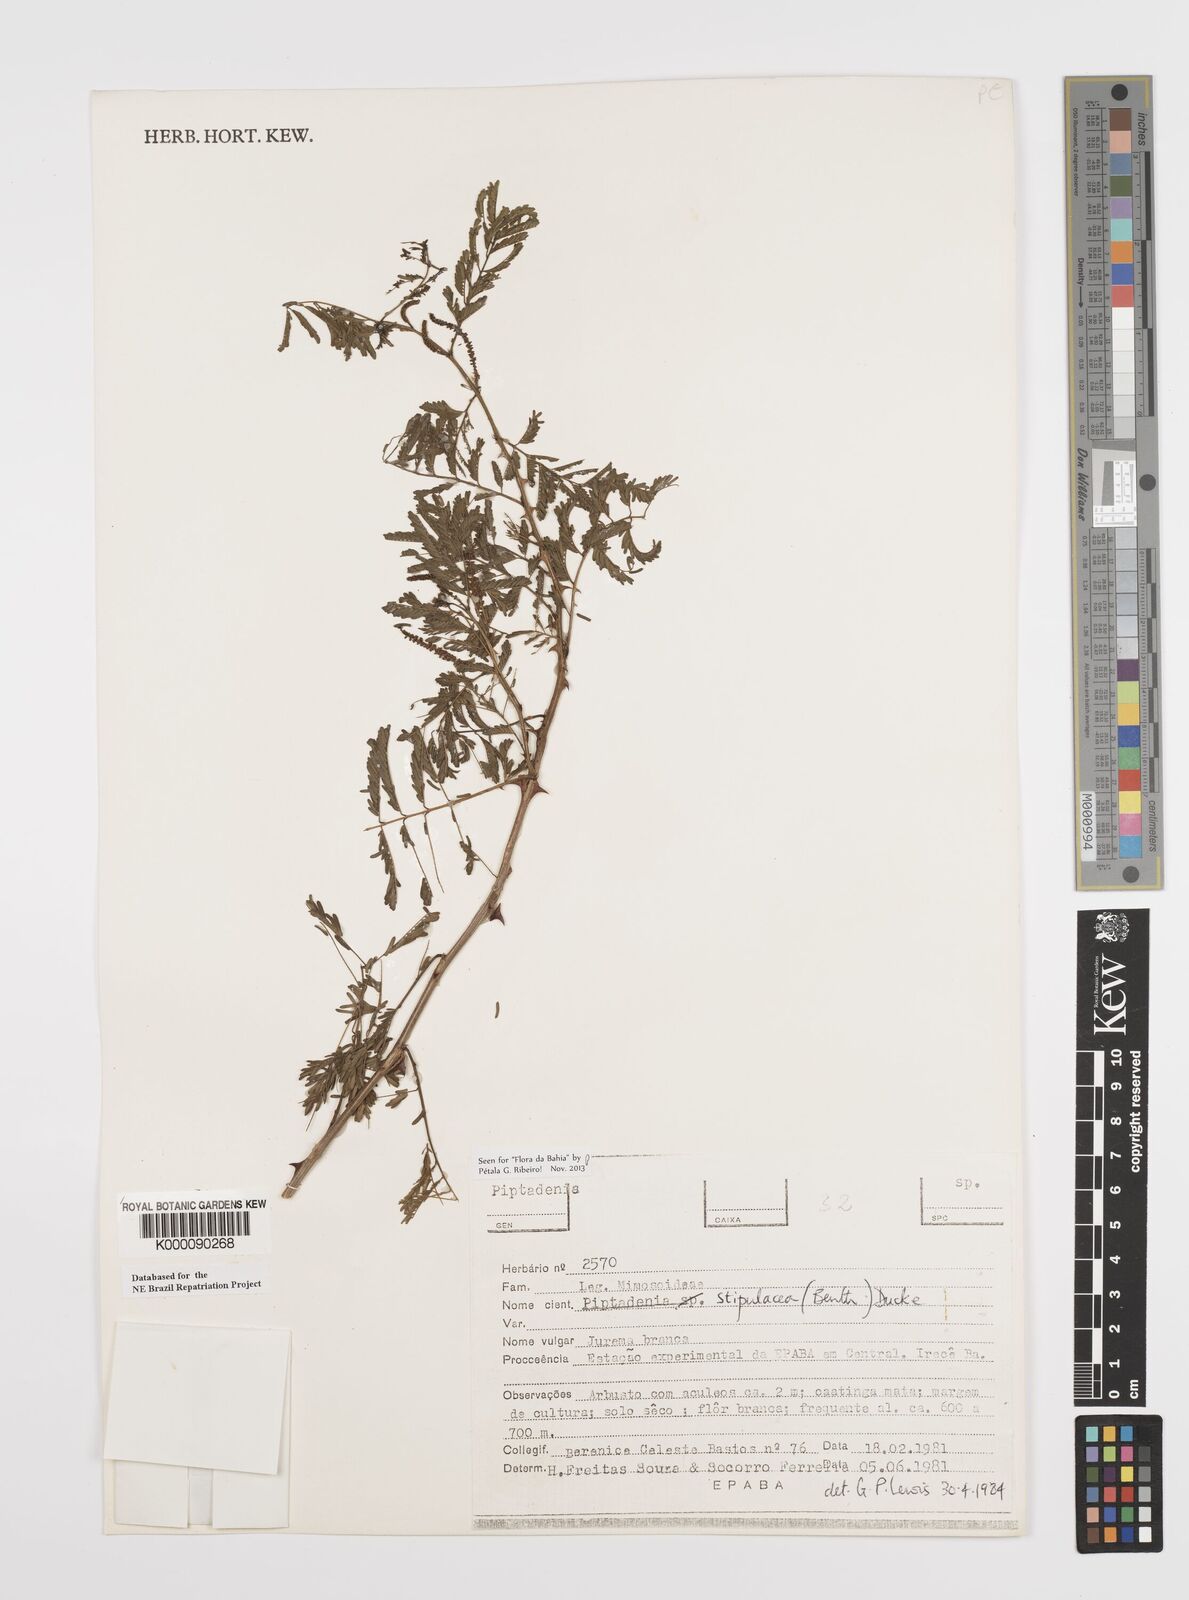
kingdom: Plantae
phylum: Tracheophyta
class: Magnoliopsida
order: Fabales
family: Fabaceae
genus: Piptadenia
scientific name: Piptadenia retusa
